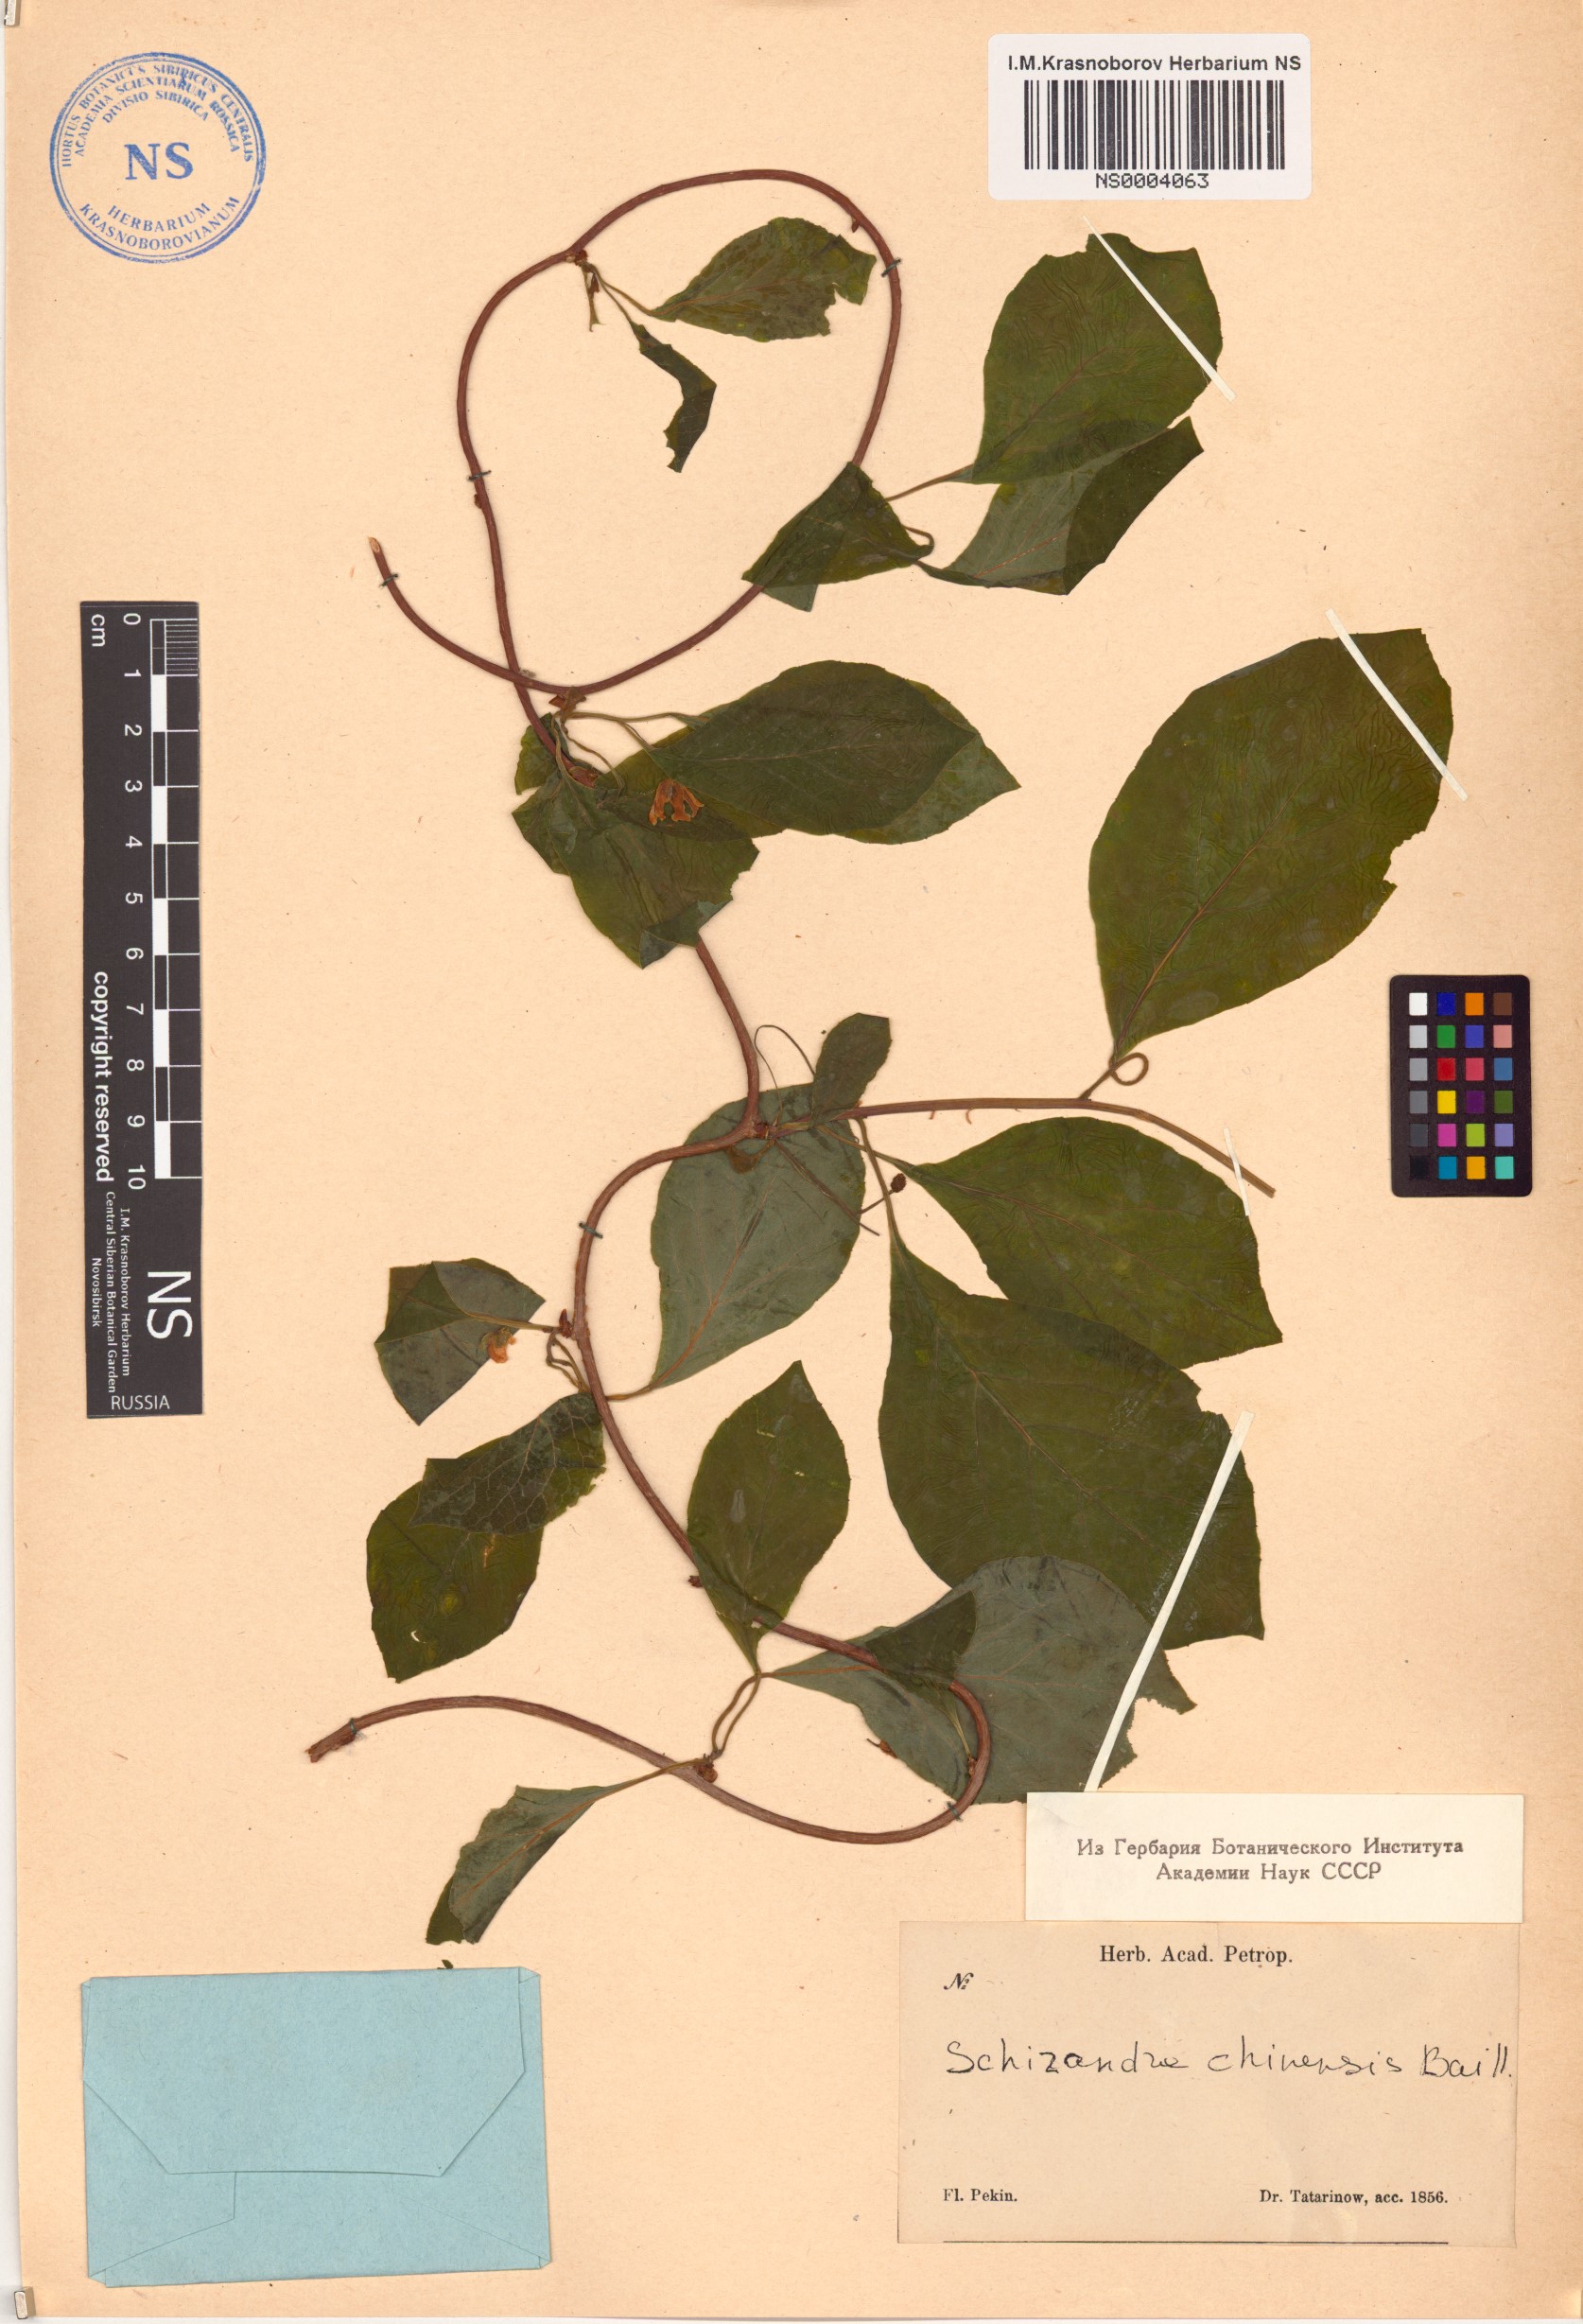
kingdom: Plantae
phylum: Tracheophyta
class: Magnoliopsida
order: Austrobaileyales
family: Schisandraceae
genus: Schisandra
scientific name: Schisandra chinensis
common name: Magnolia-vine
